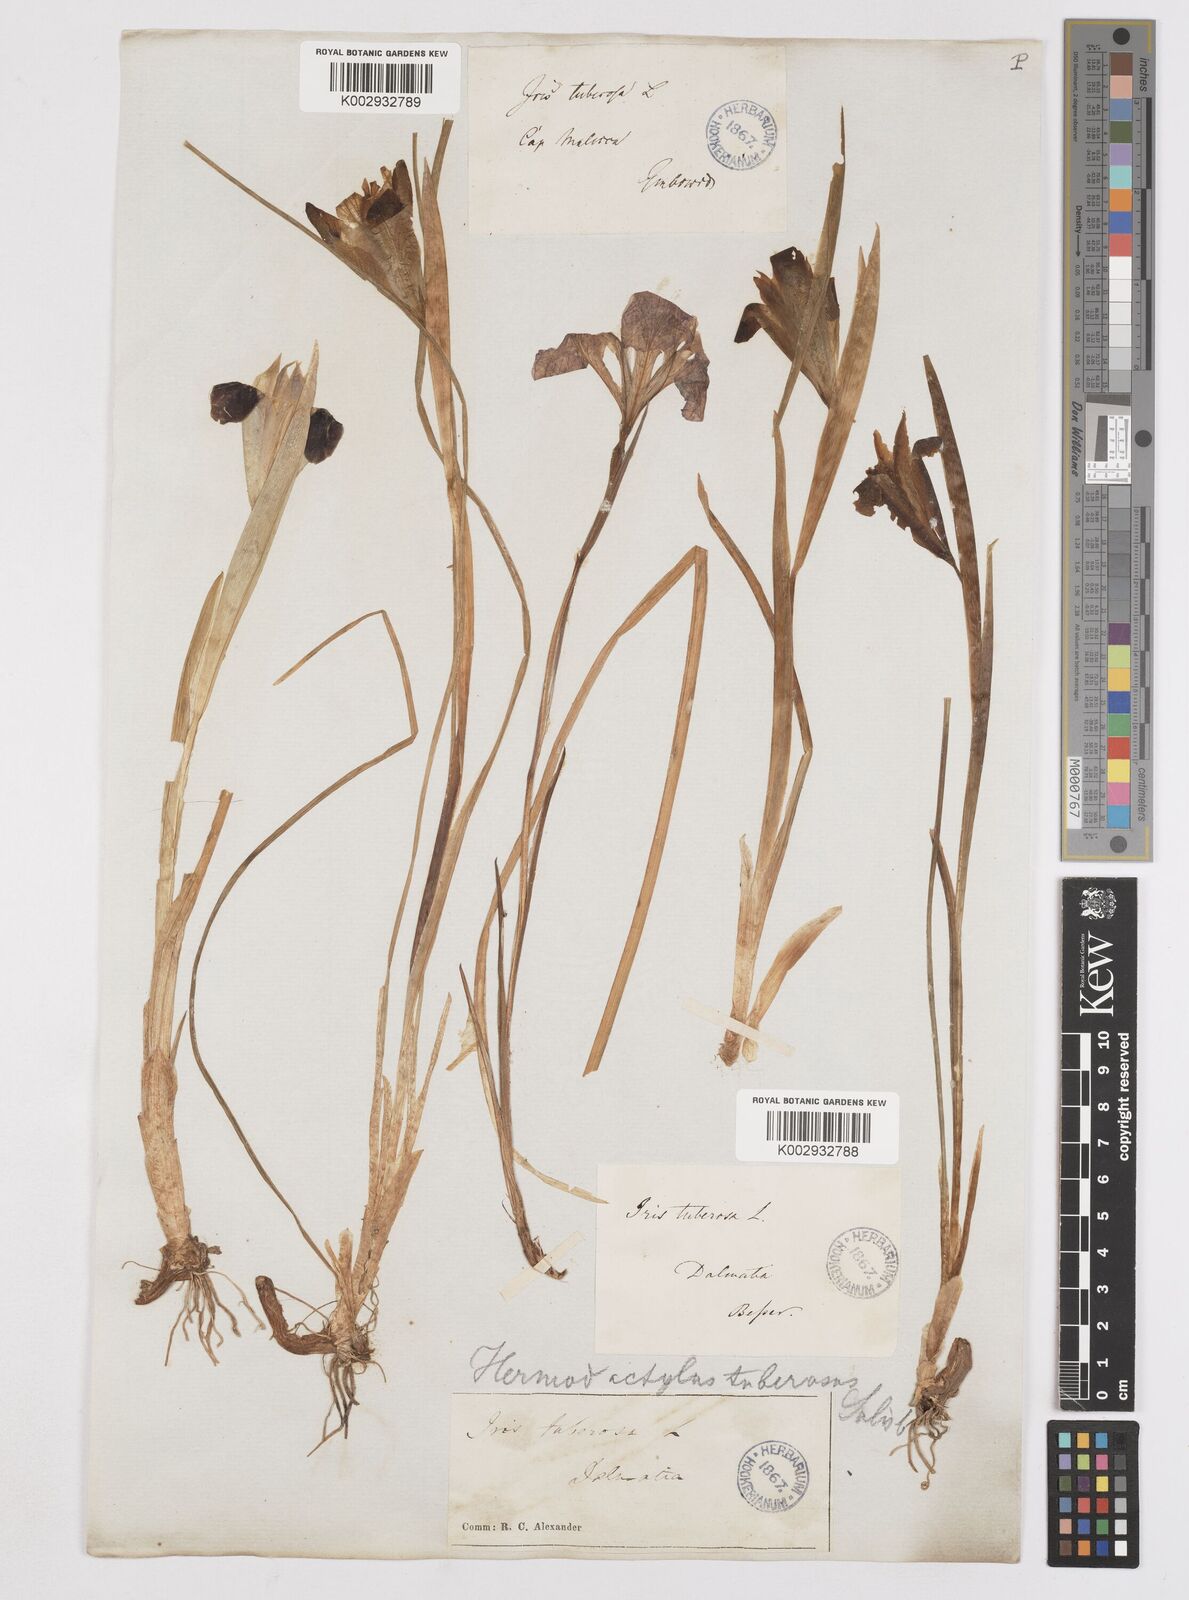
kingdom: Plantae
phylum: Tracheophyta
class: Liliopsida
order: Asparagales
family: Iridaceae
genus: Iris
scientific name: Iris tuberosa
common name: Snake's-head iris
